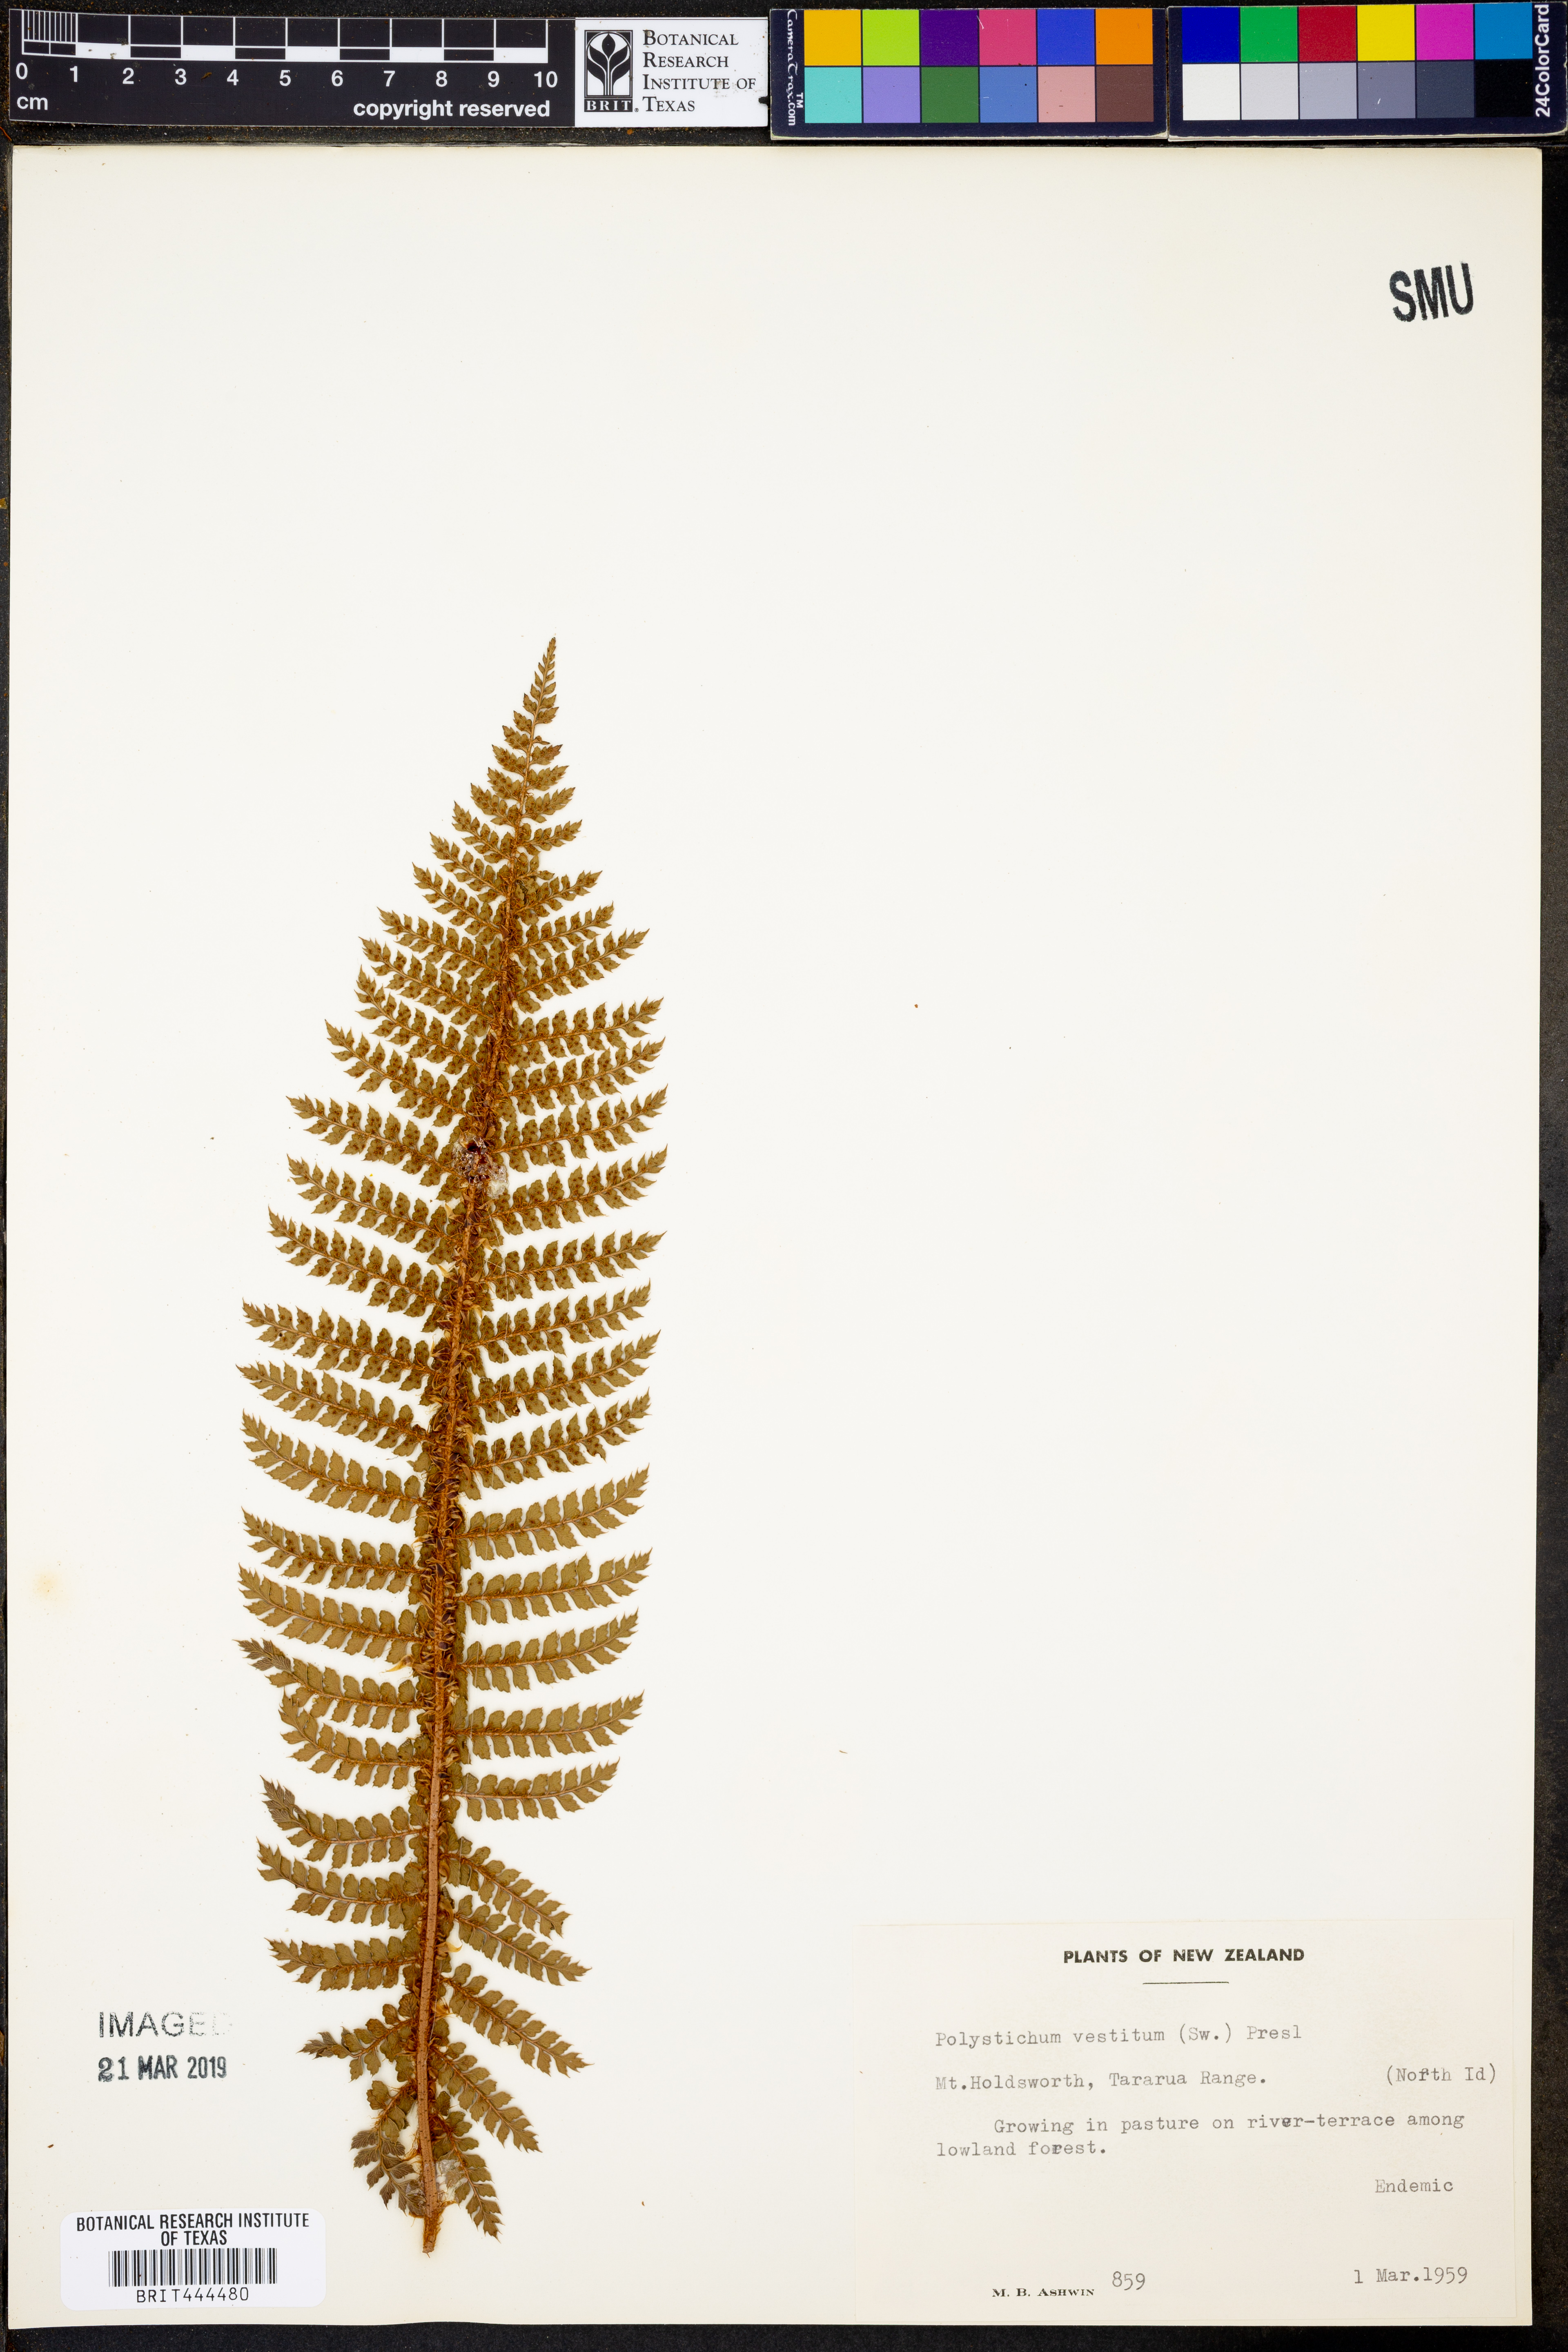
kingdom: Plantae
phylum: Tracheophyta
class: Polypodiopsida
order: Polypodiales
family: Dryopteridaceae
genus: Polystichum
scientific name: Polystichum vestitum
